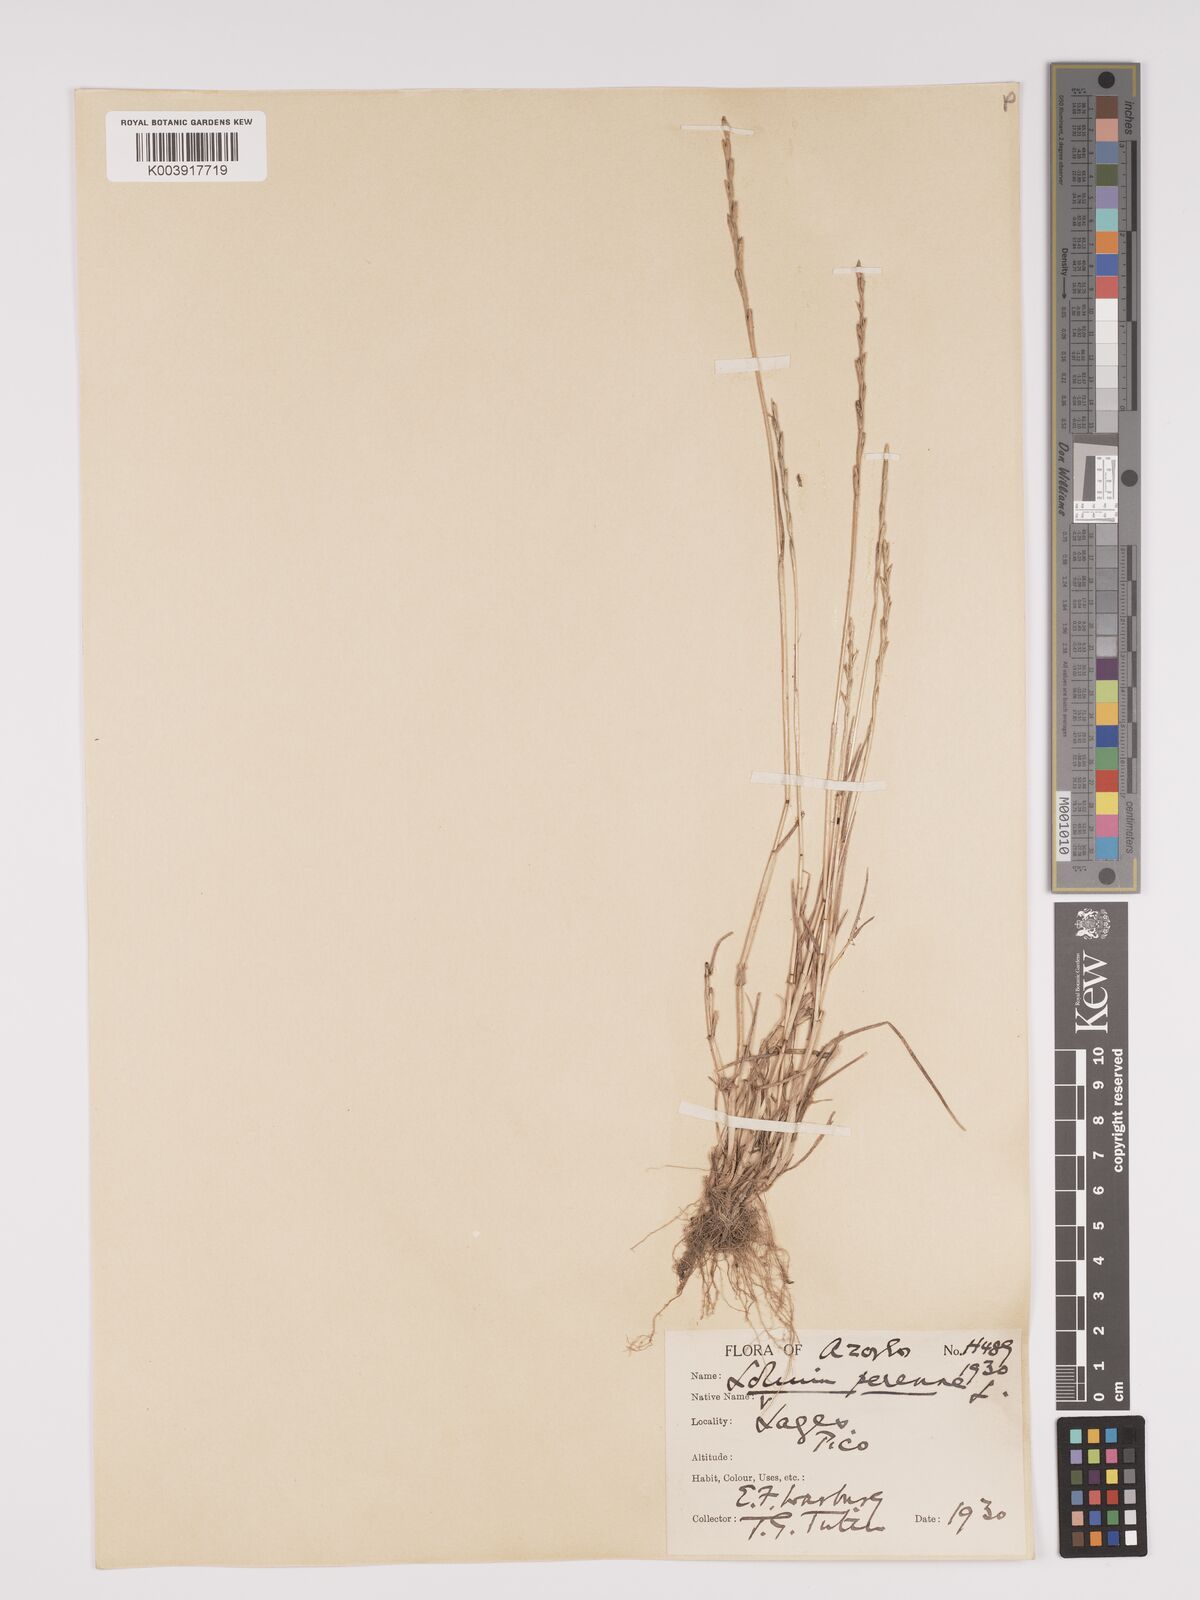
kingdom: Plantae
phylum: Tracheophyta
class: Liliopsida
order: Poales
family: Poaceae
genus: Lolium
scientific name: Lolium perenne
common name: Perennial ryegrass
